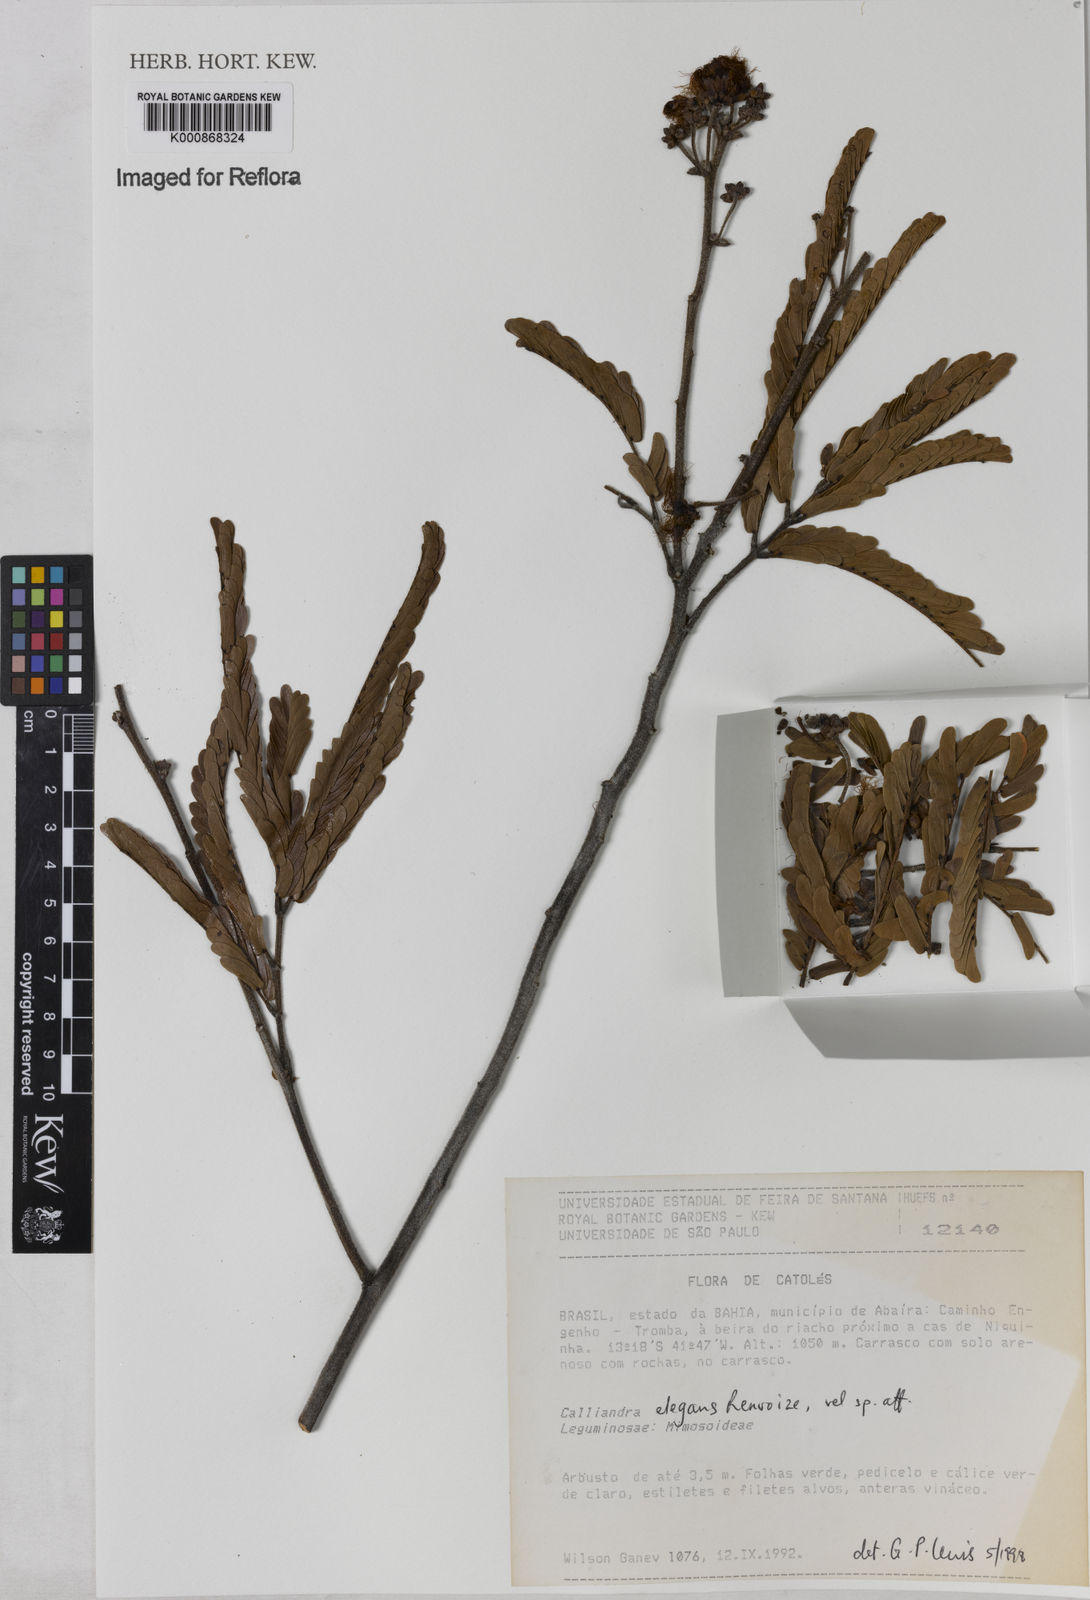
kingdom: Plantae
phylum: Tracheophyta
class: Magnoliopsida
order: Fabales
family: Fabaceae
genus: Calliandra
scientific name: Calliandra elegans
